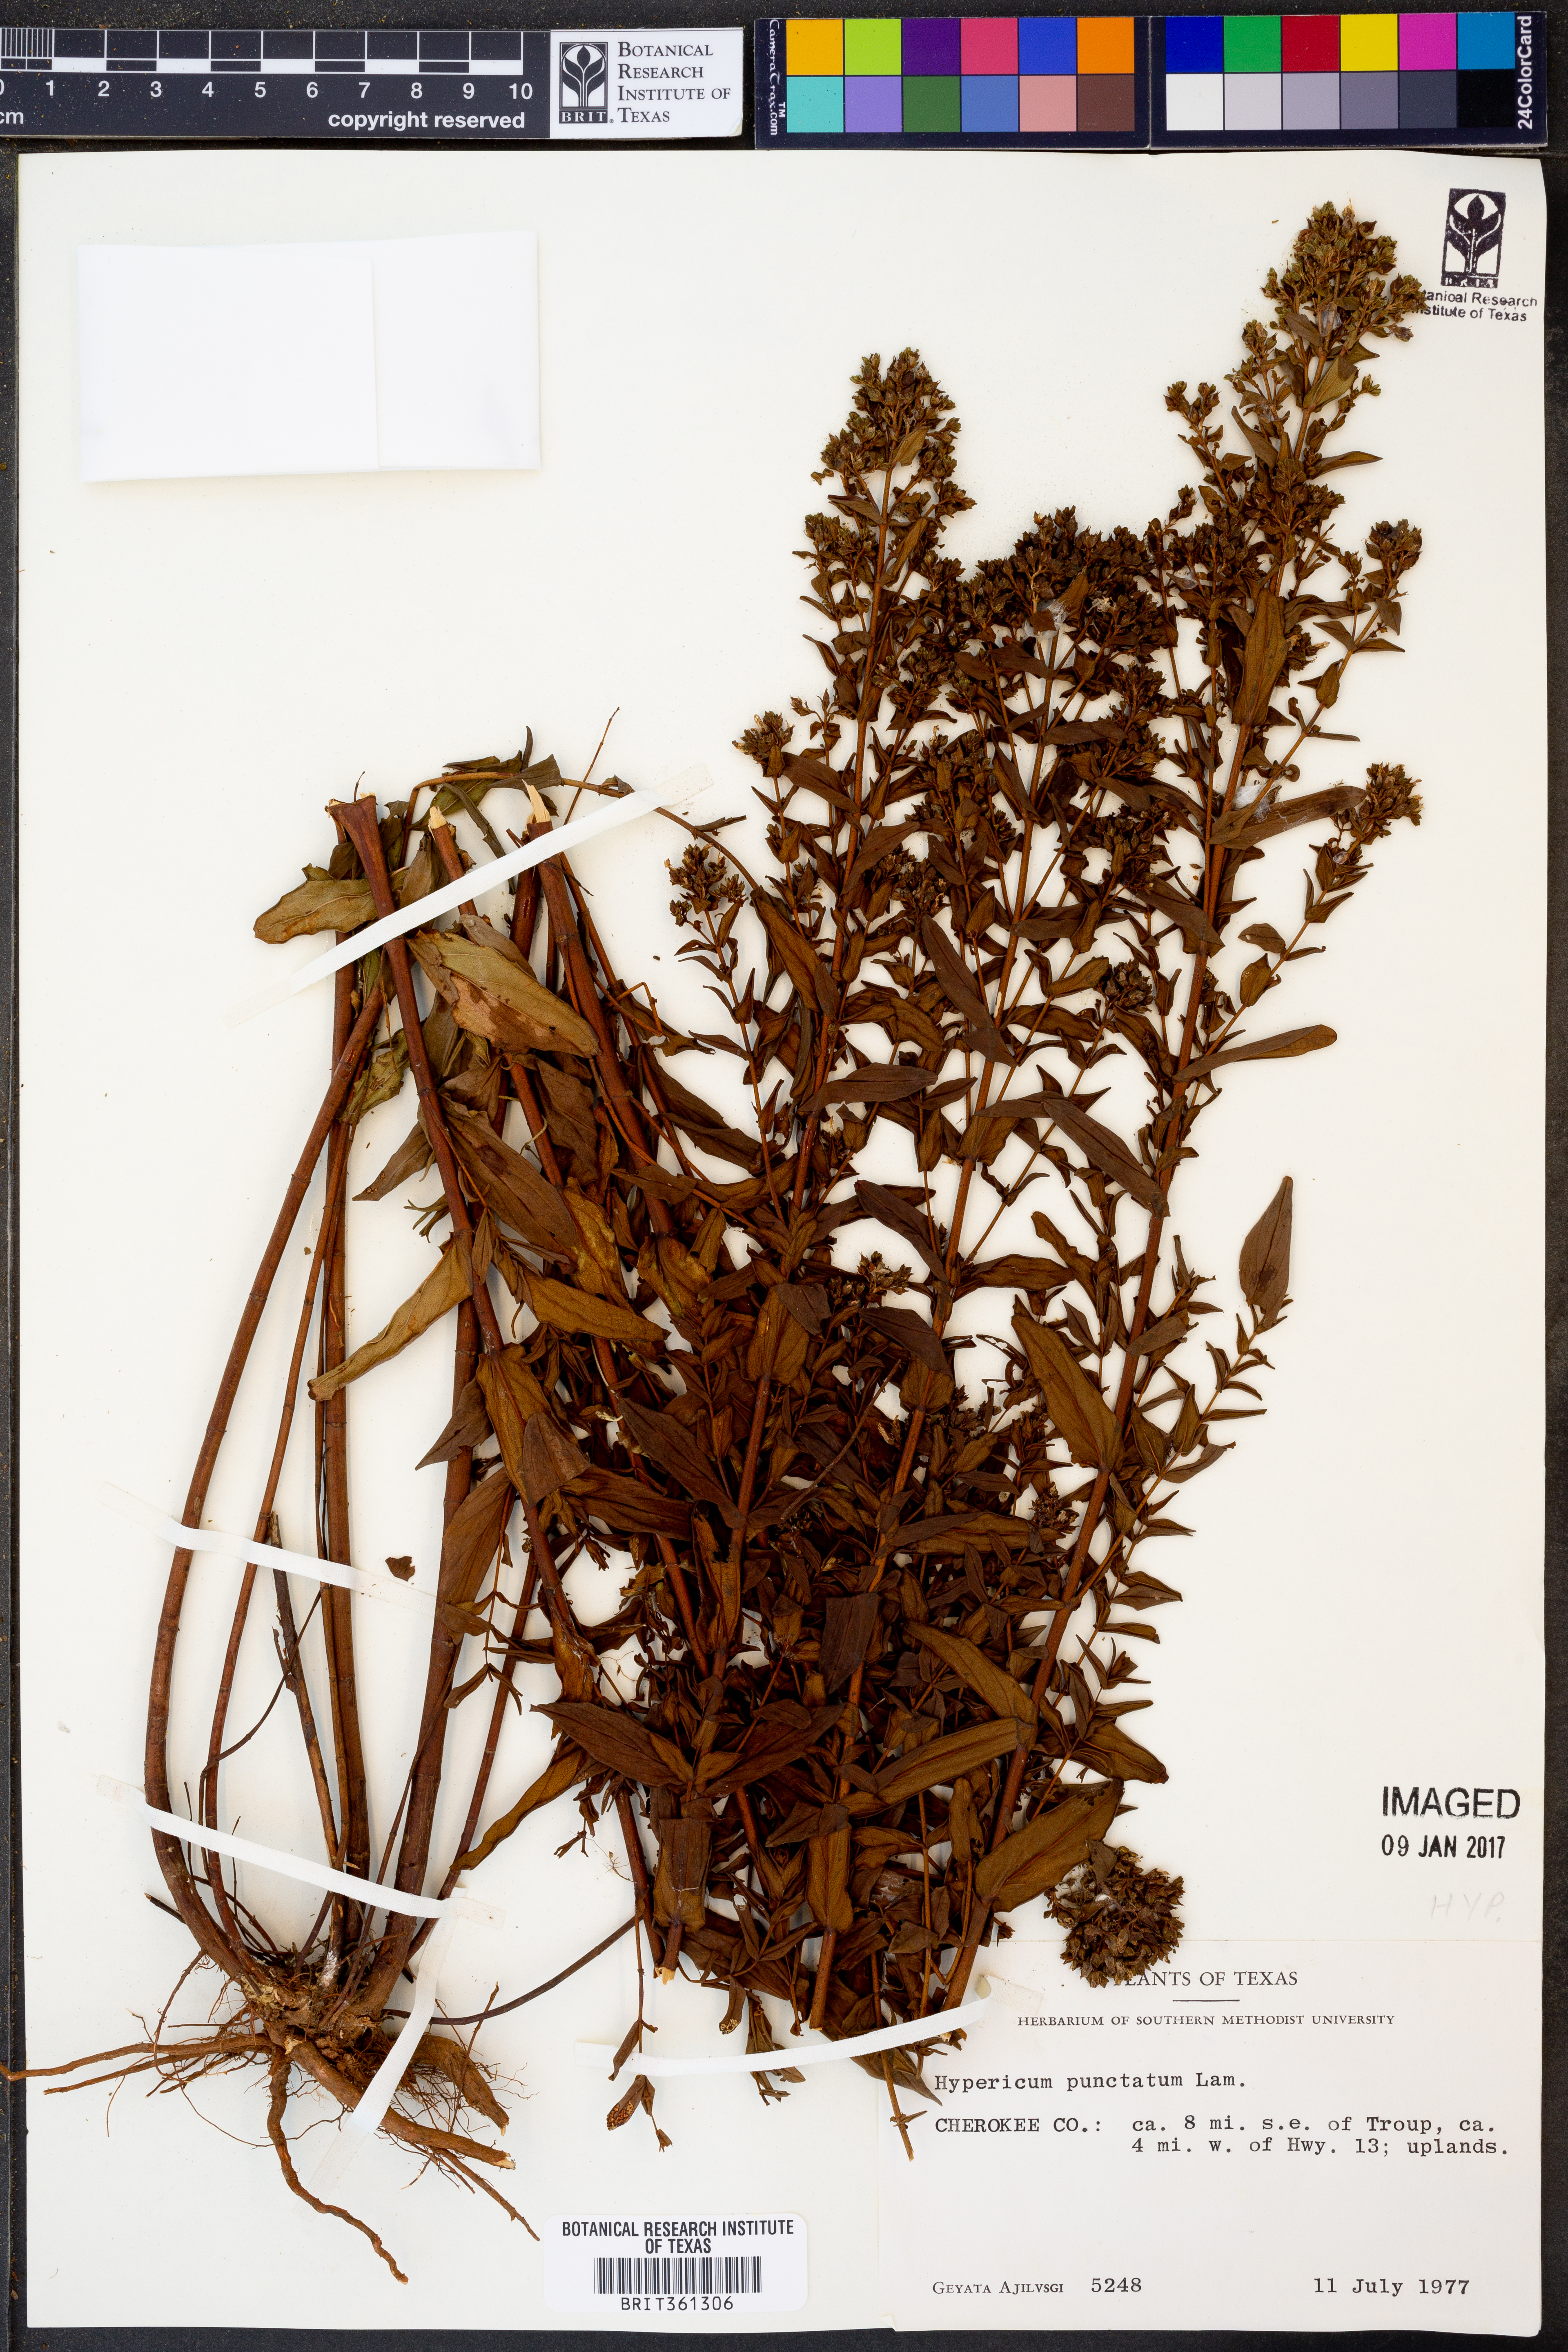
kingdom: Plantae
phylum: Tracheophyta
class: Magnoliopsida
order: Malpighiales
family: Hypericaceae
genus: Hypericum
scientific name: Hypericum punctatum
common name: Spotted st. john's-wort
